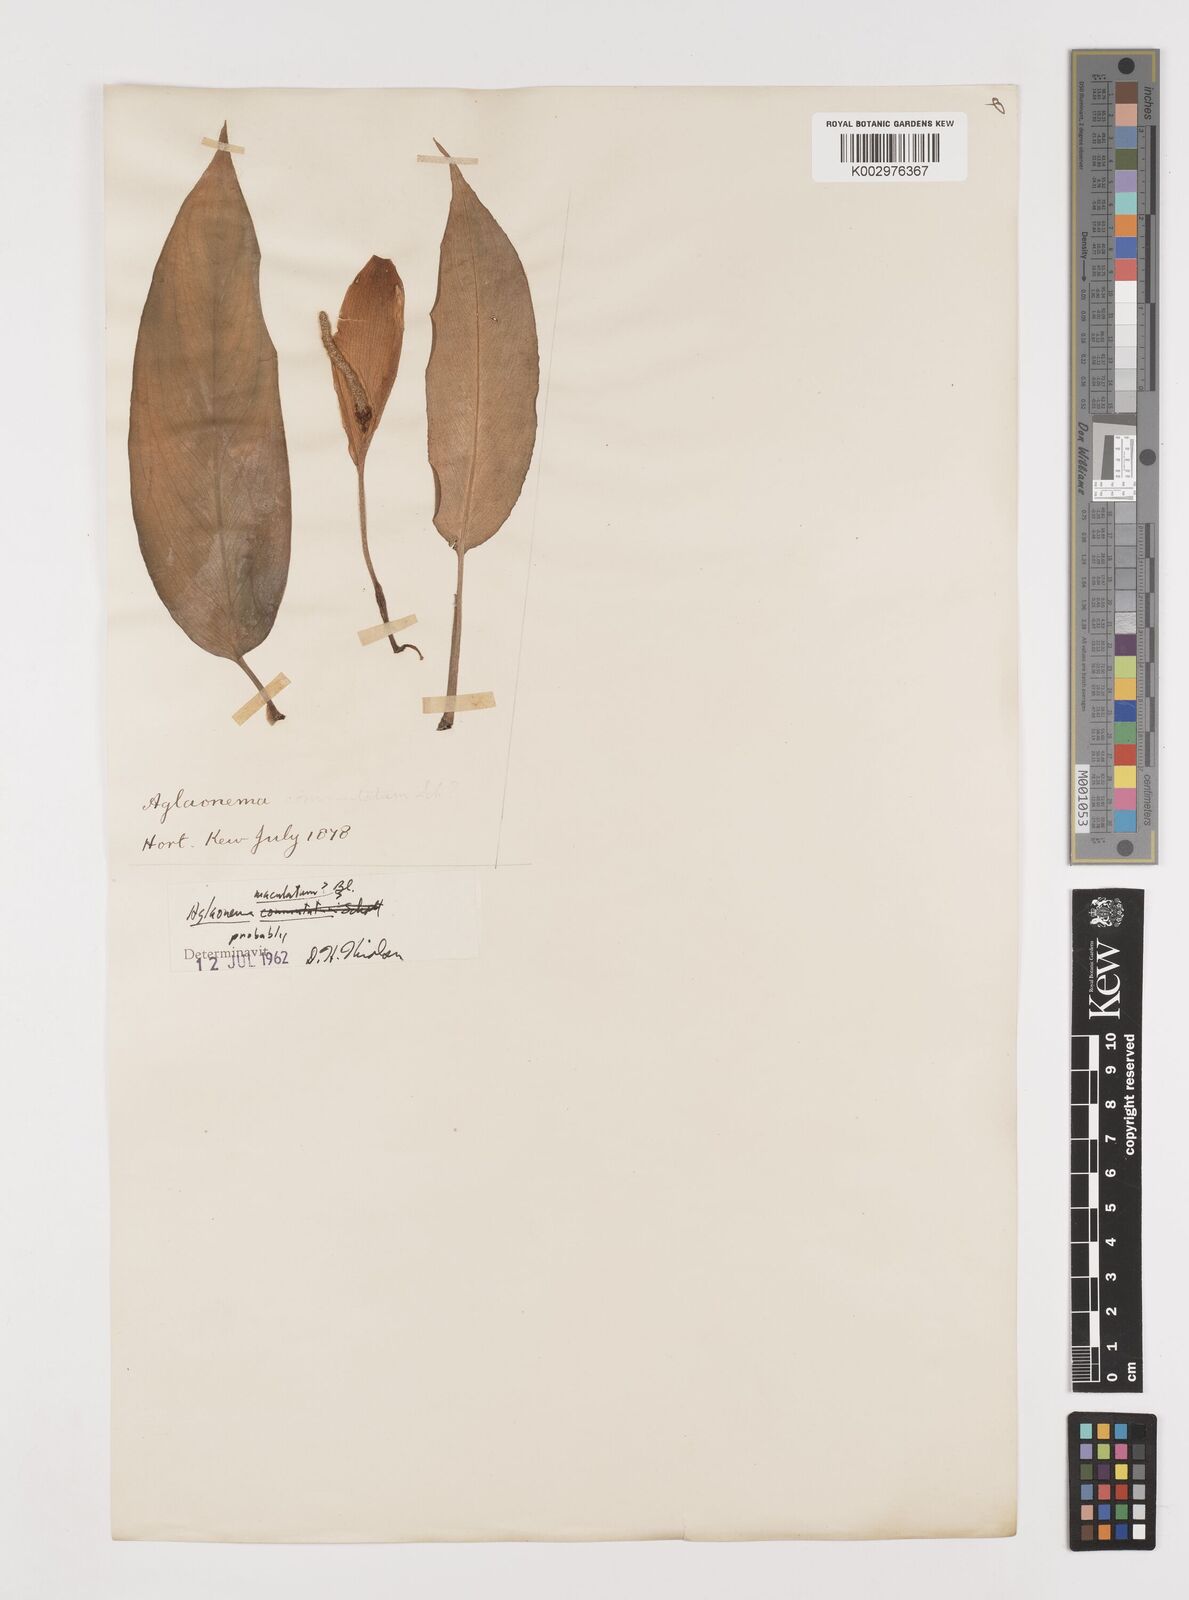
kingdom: Plantae
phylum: Tracheophyta
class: Liliopsida
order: Alismatales
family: Araceae
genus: Aglaonema
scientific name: Aglaonema commutatum
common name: Philippine evergreen
